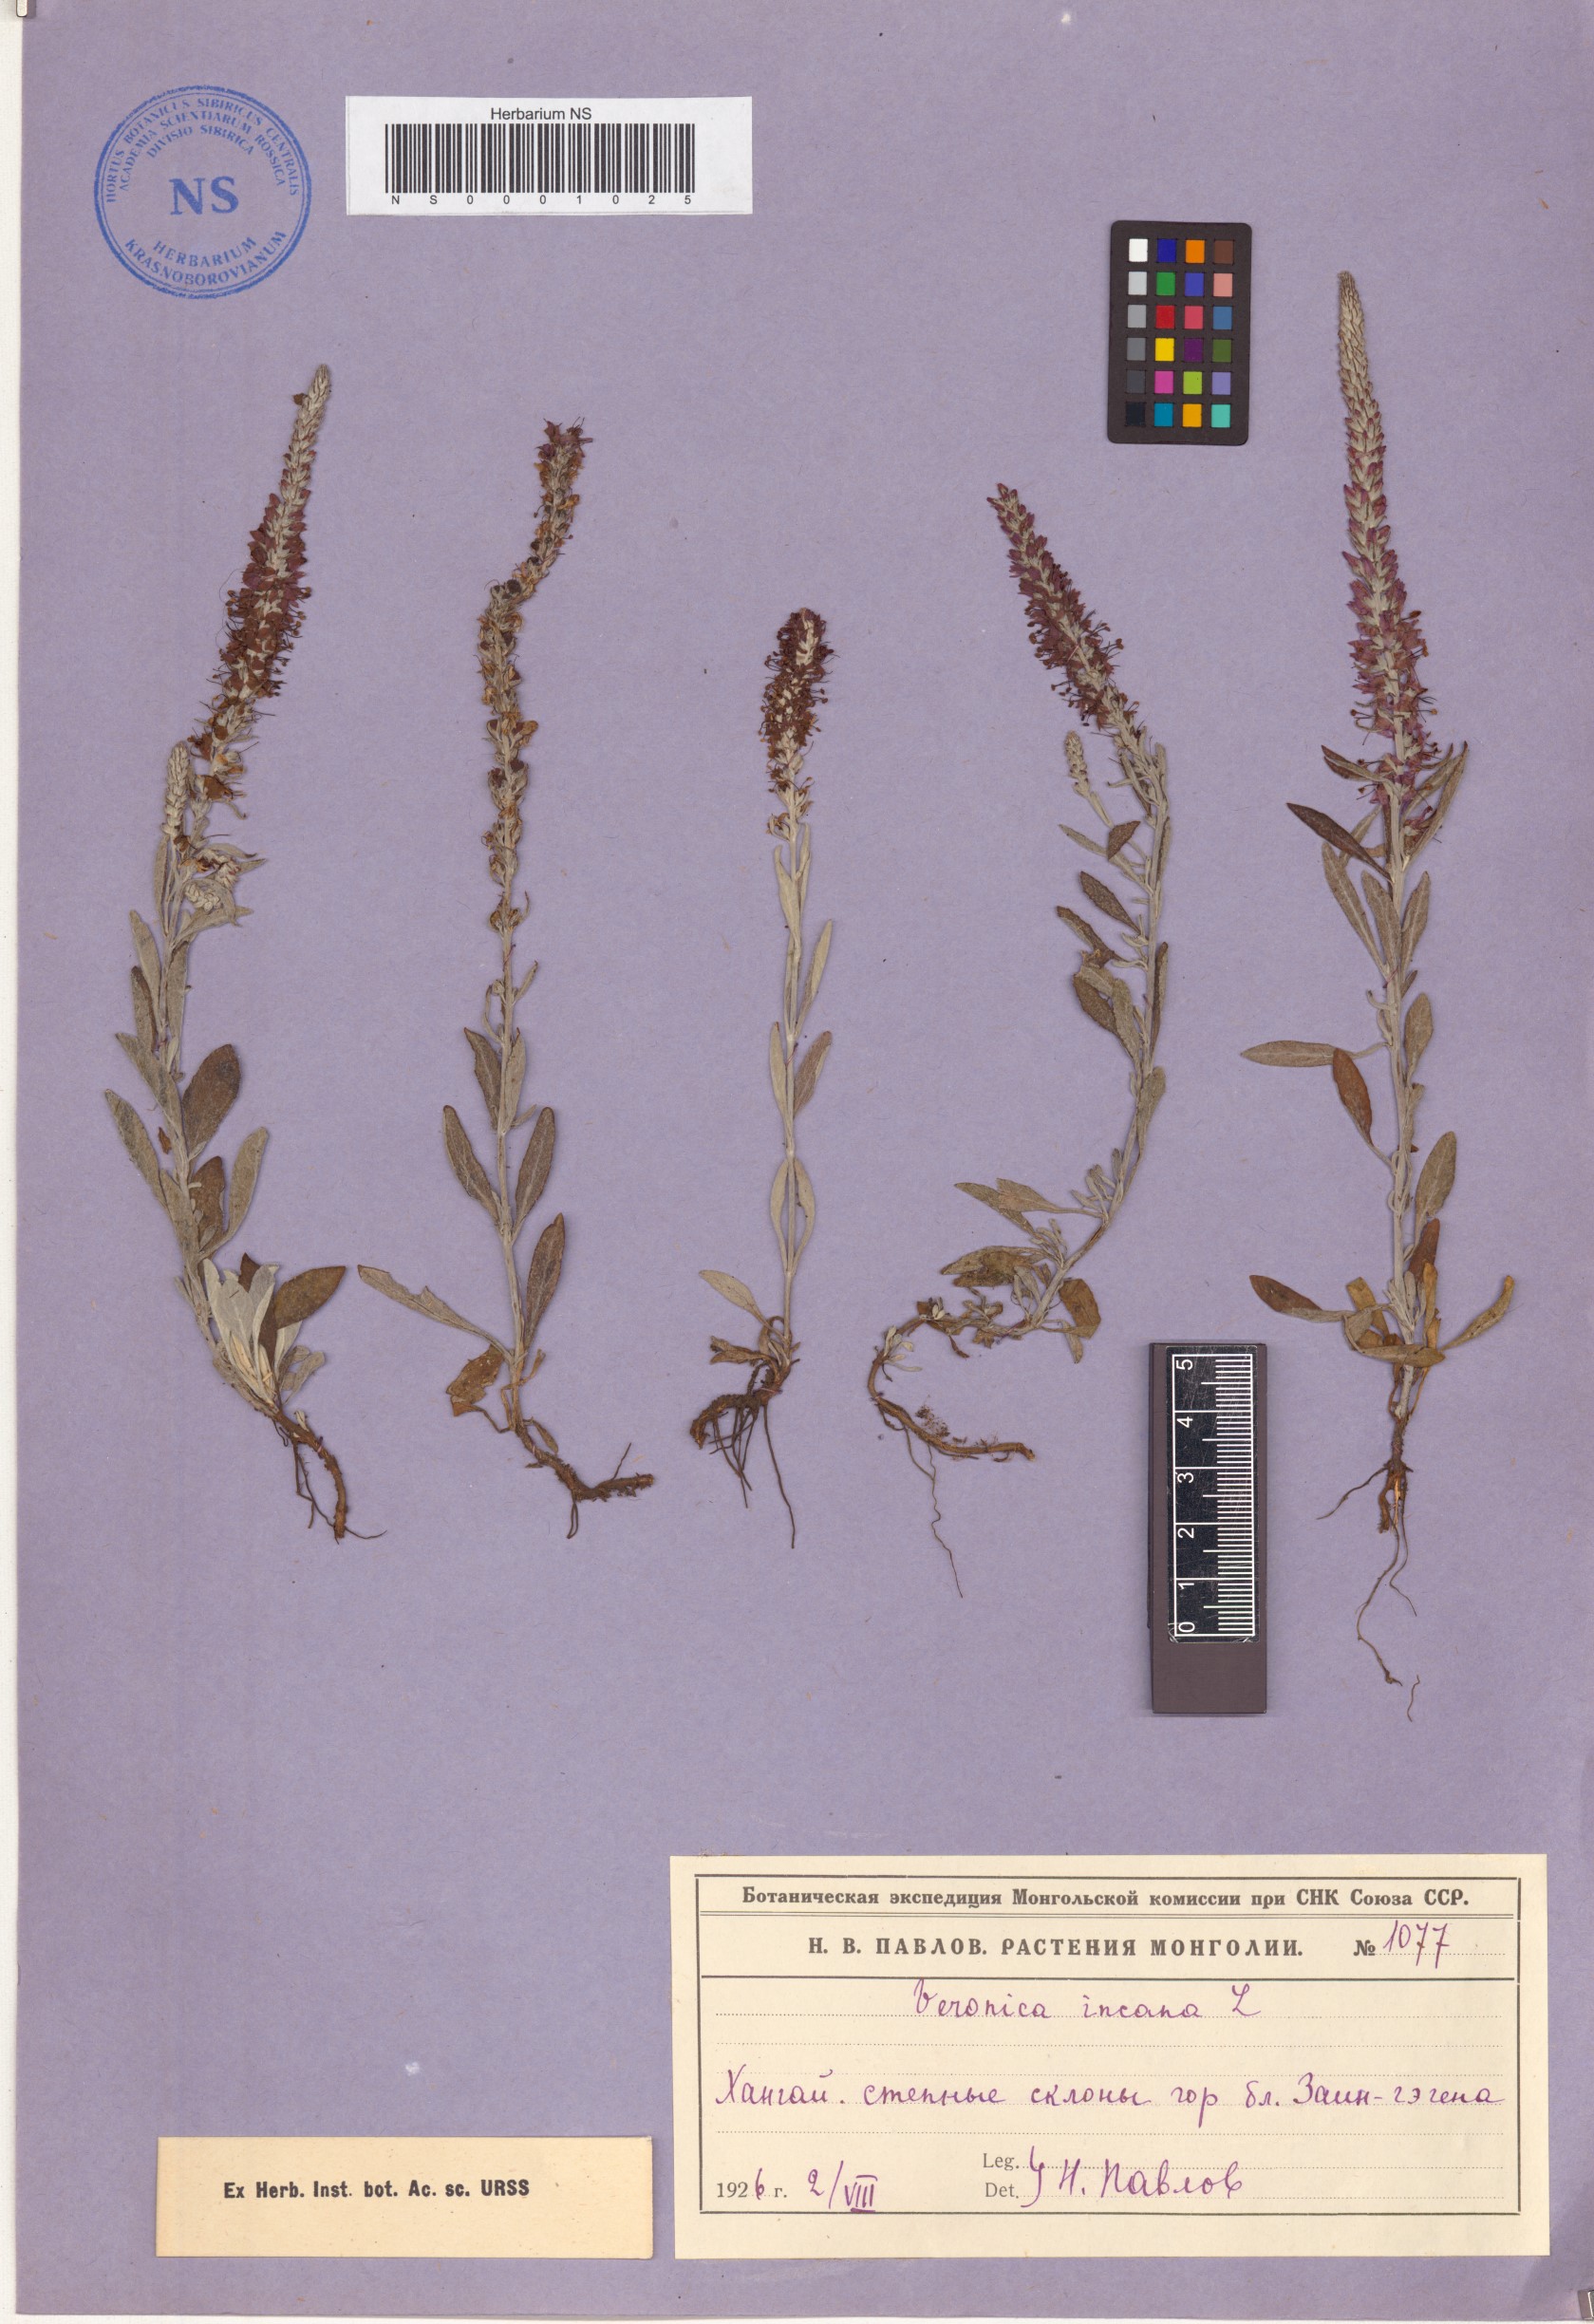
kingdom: Plantae
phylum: Tracheophyta
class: Magnoliopsida
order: Lamiales
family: Plantaginaceae
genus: Veronica
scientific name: Veronica incana
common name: Silver speedwell
